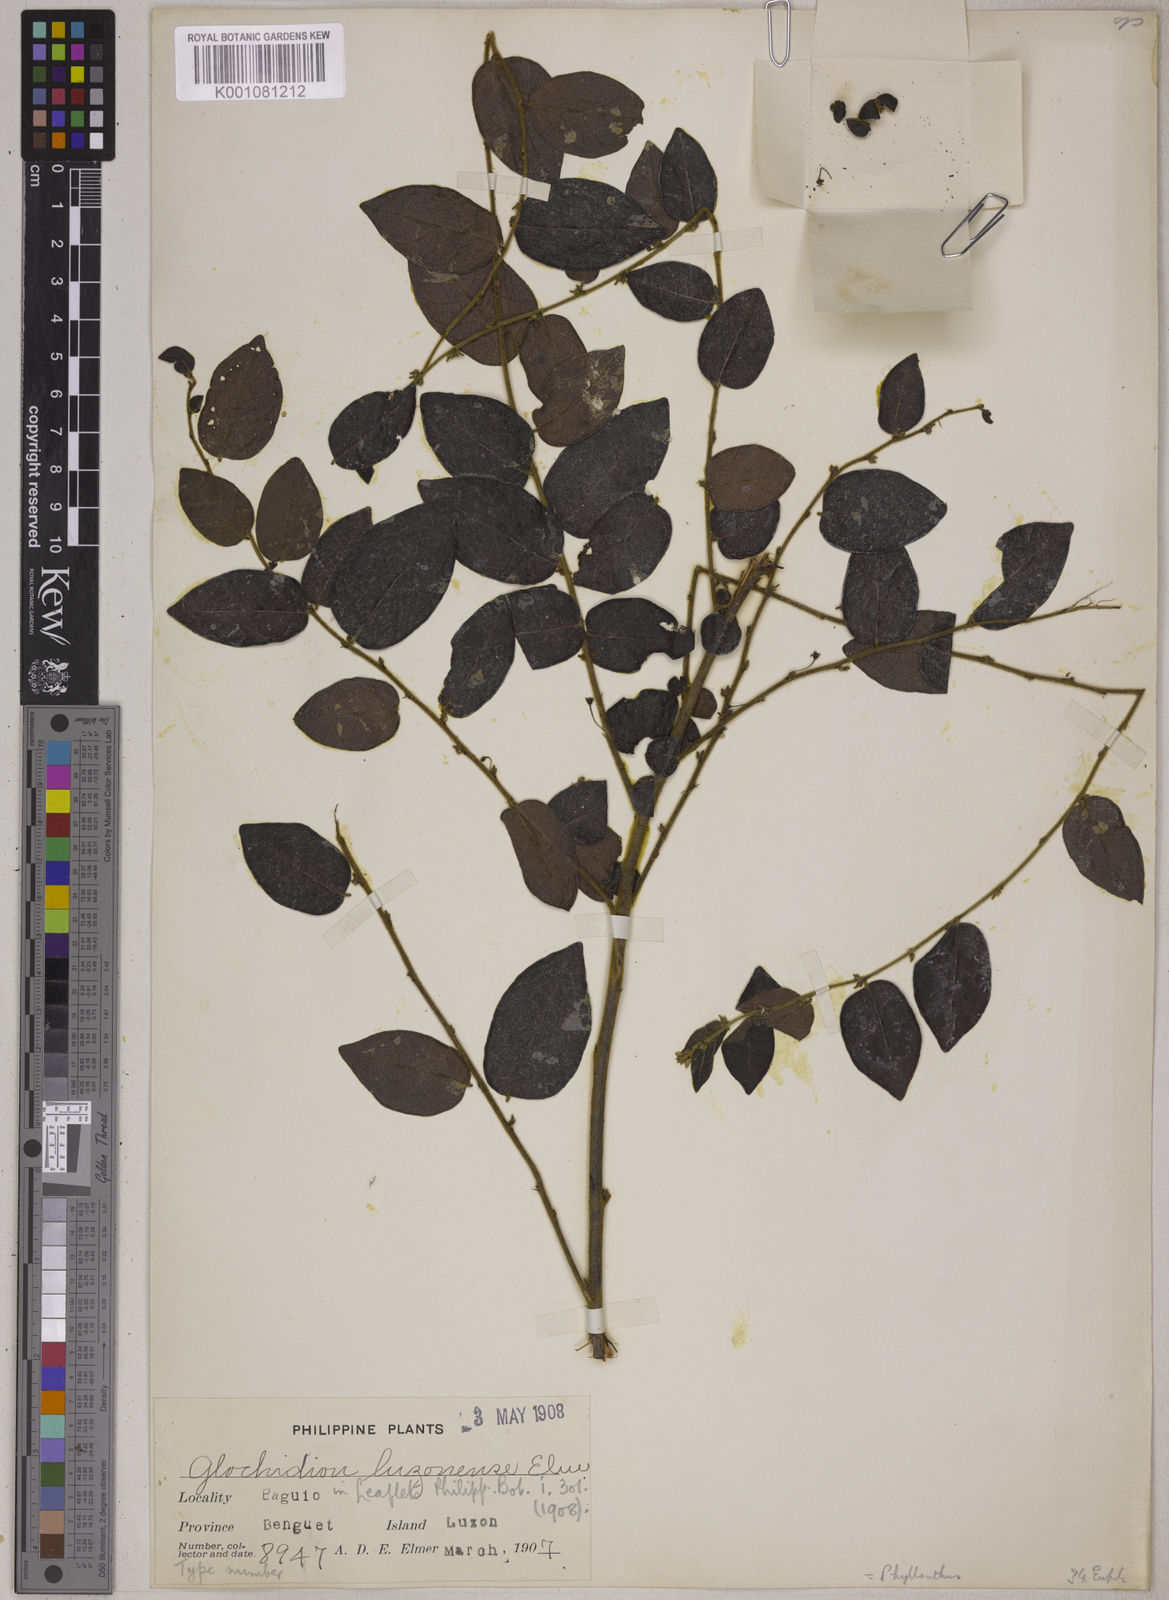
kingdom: Plantae
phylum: Tracheophyta
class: Magnoliopsida
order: Malpighiales
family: Phyllanthaceae
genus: Glochidion
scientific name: Glochidion luzonense
